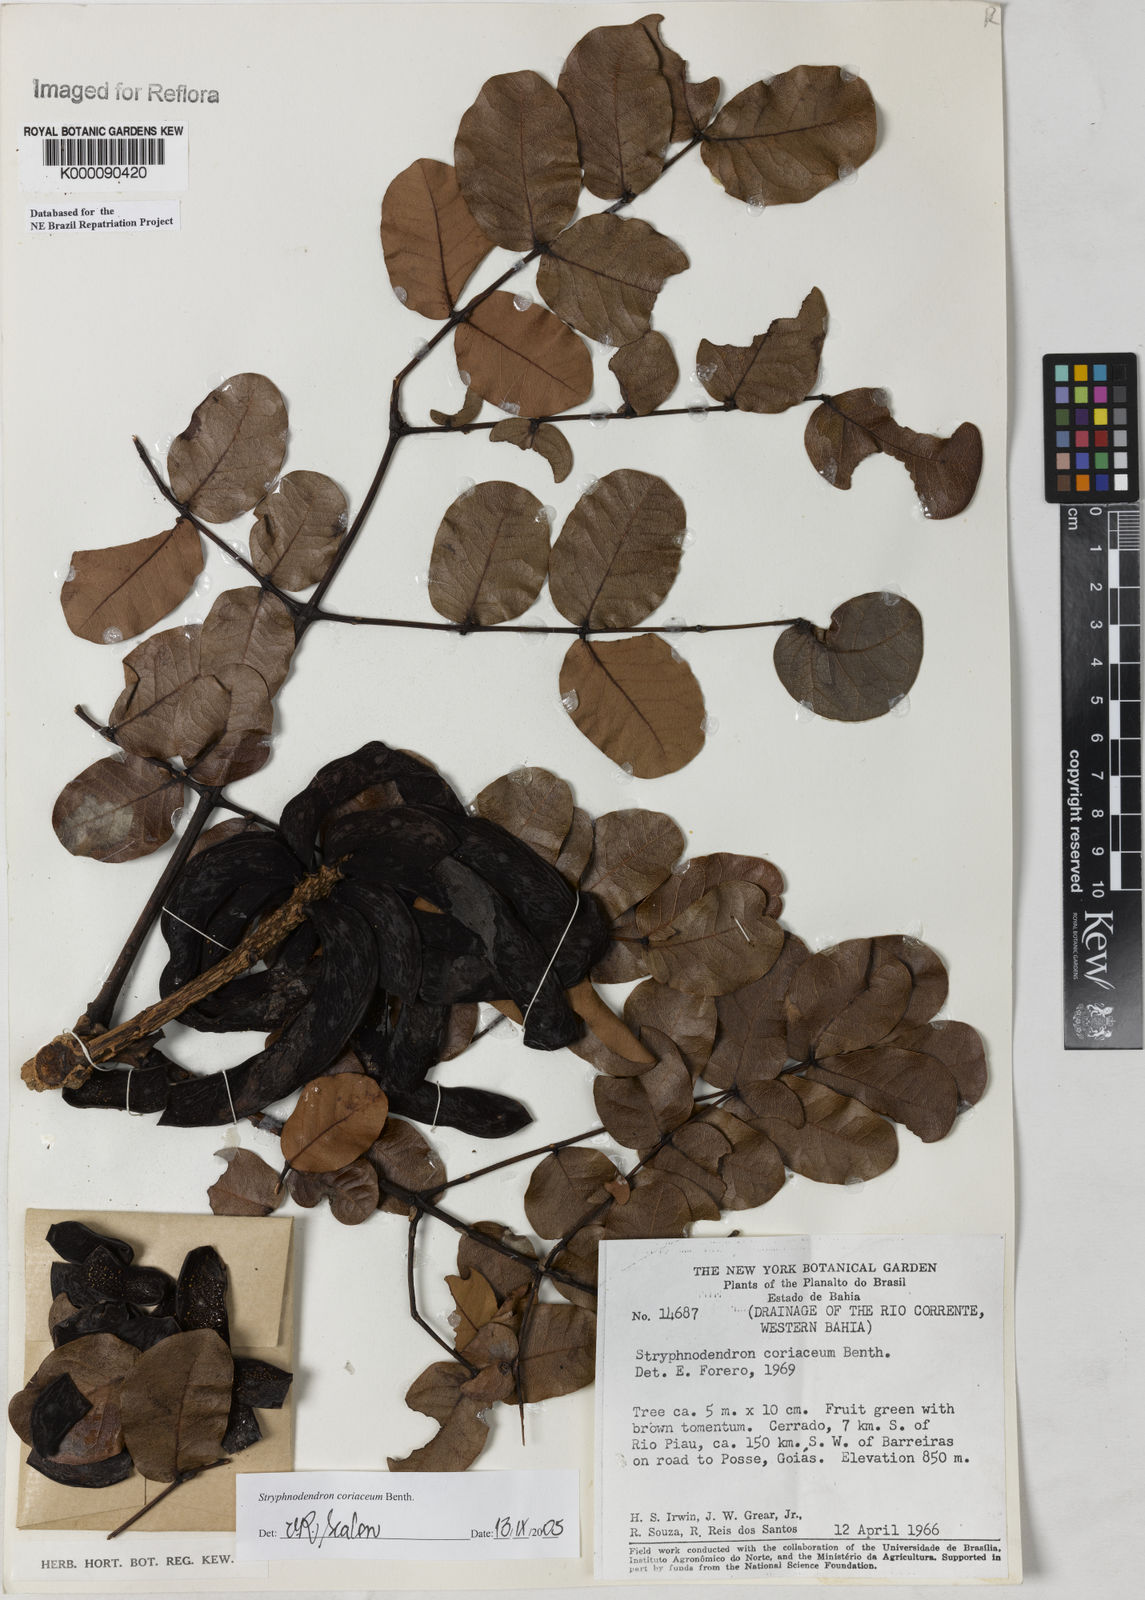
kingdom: Plantae
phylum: Tracheophyta
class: Magnoliopsida
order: Fabales
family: Fabaceae
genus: Stryphnodendron
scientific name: Stryphnodendron coriaceum
